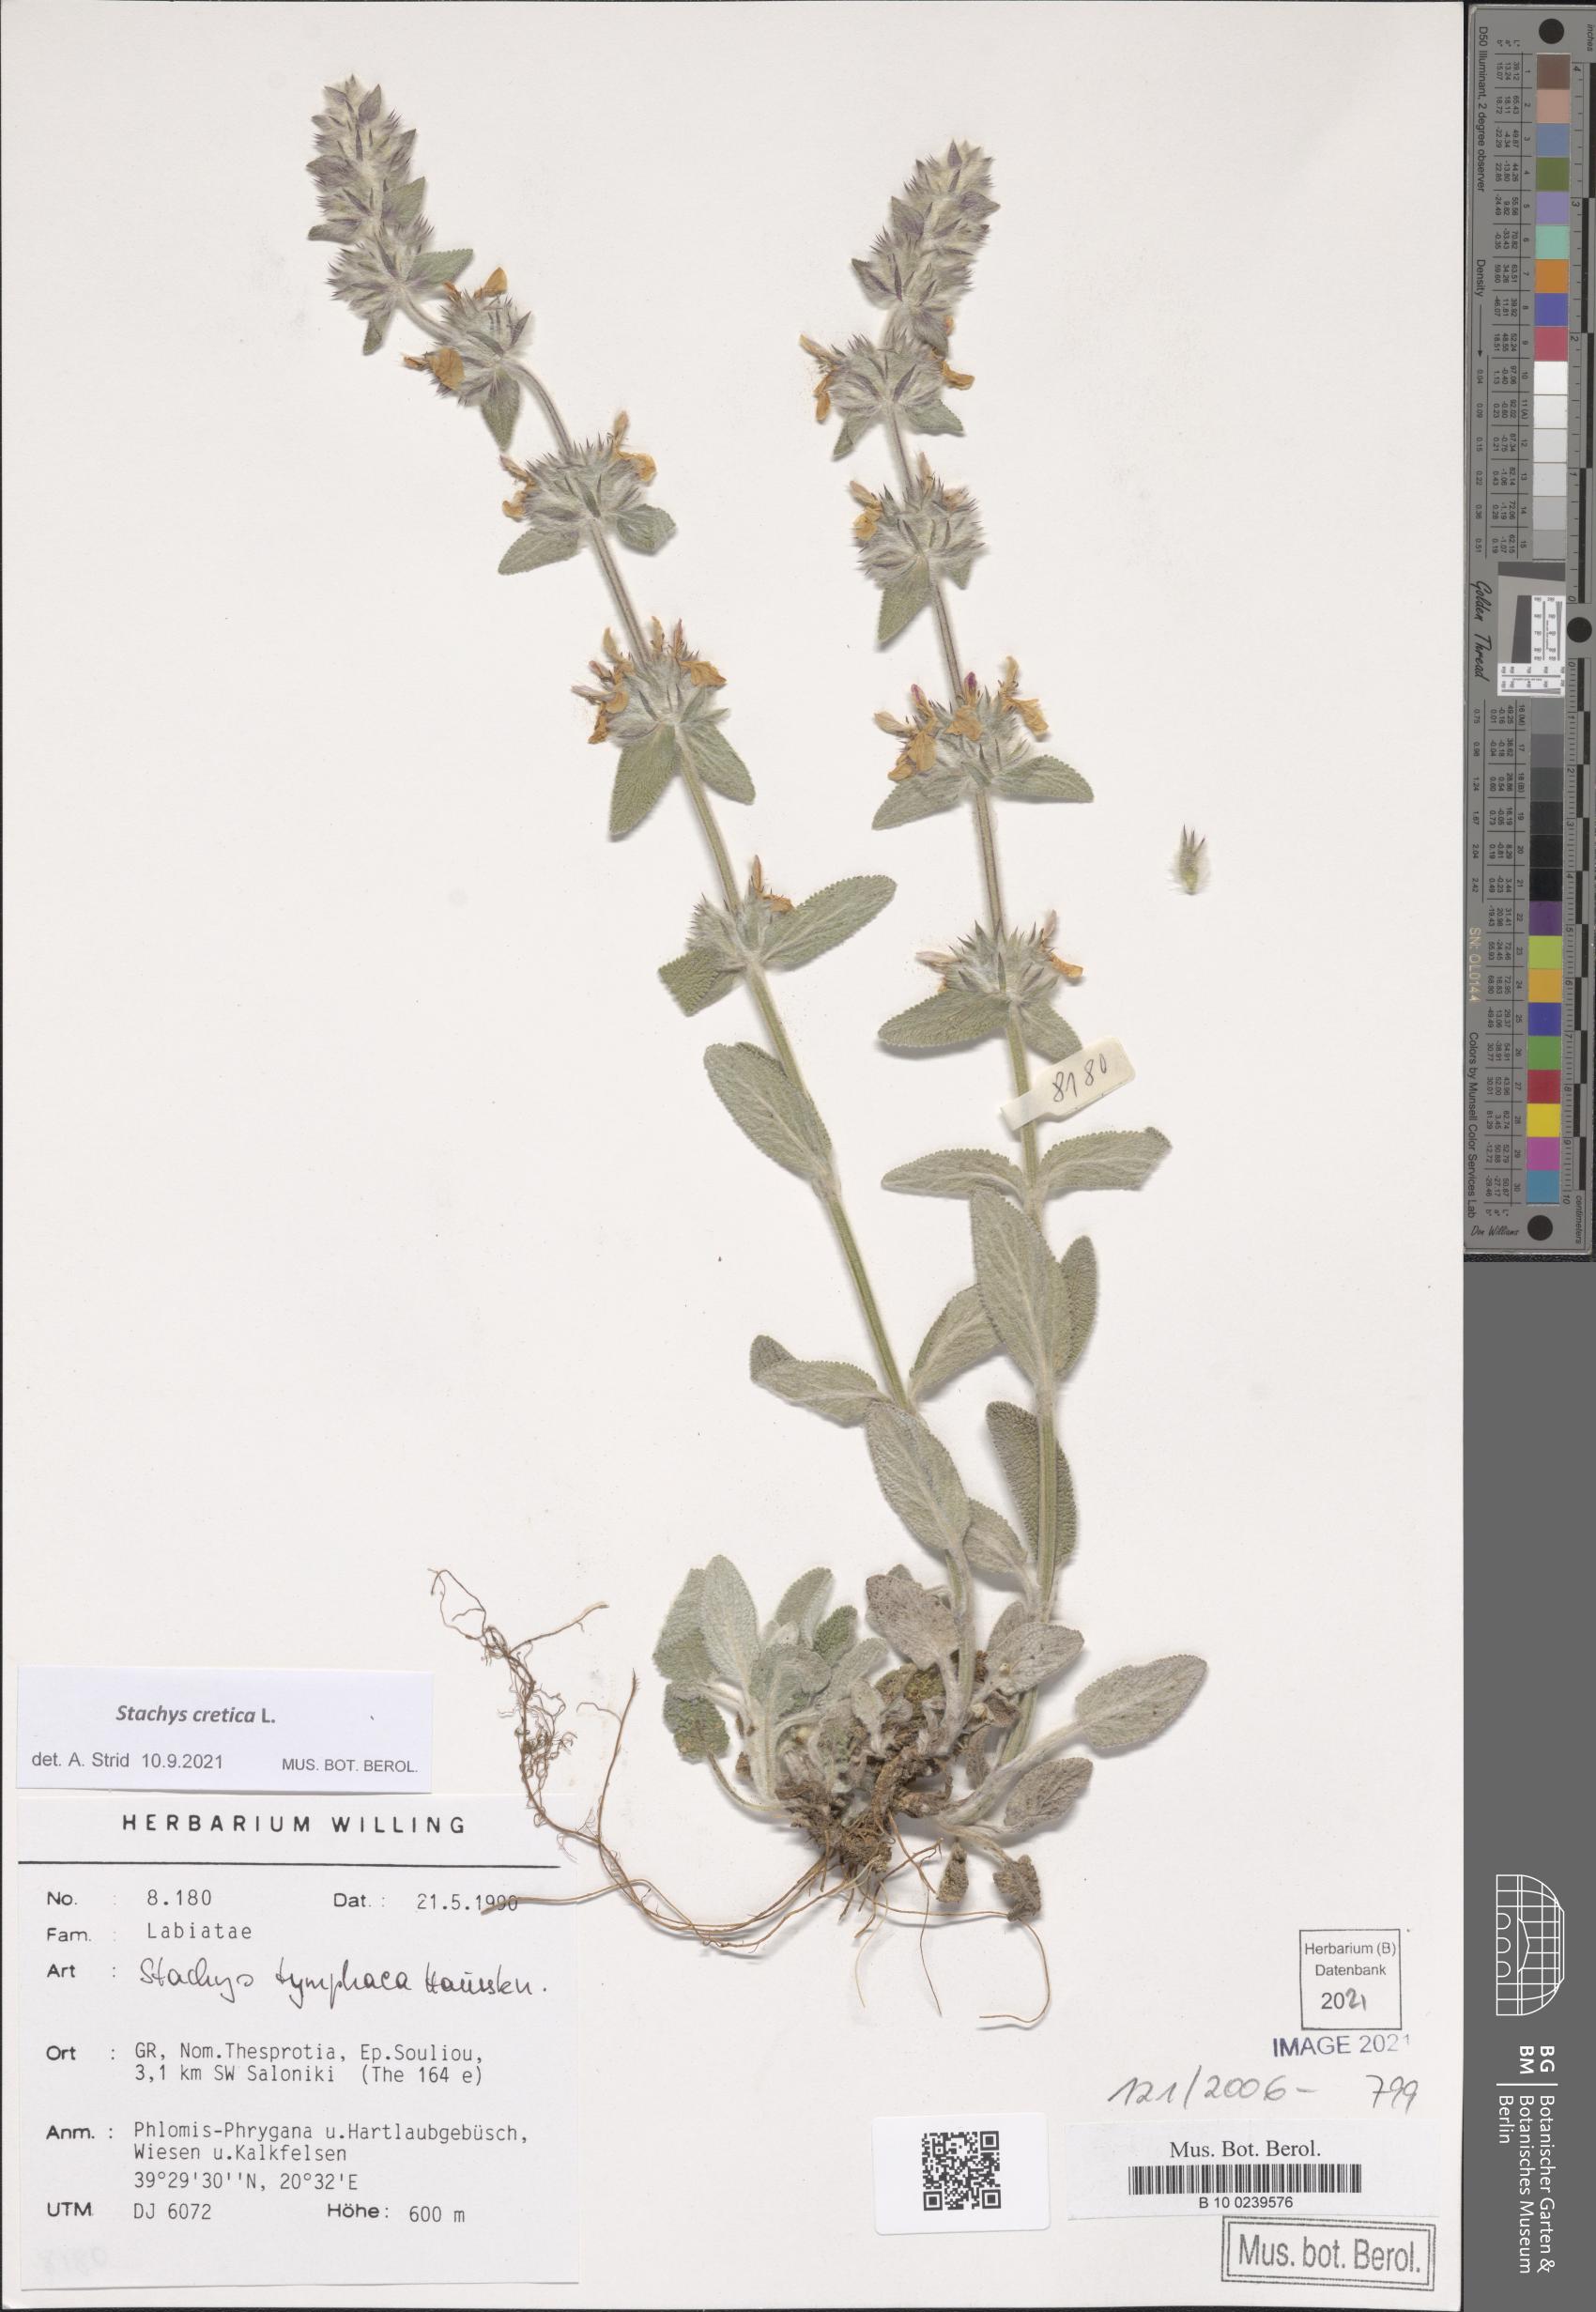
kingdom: Plantae
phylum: Tracheophyta
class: Magnoliopsida
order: Lamiales
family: Lamiaceae
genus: Stachys
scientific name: Stachys cretica
